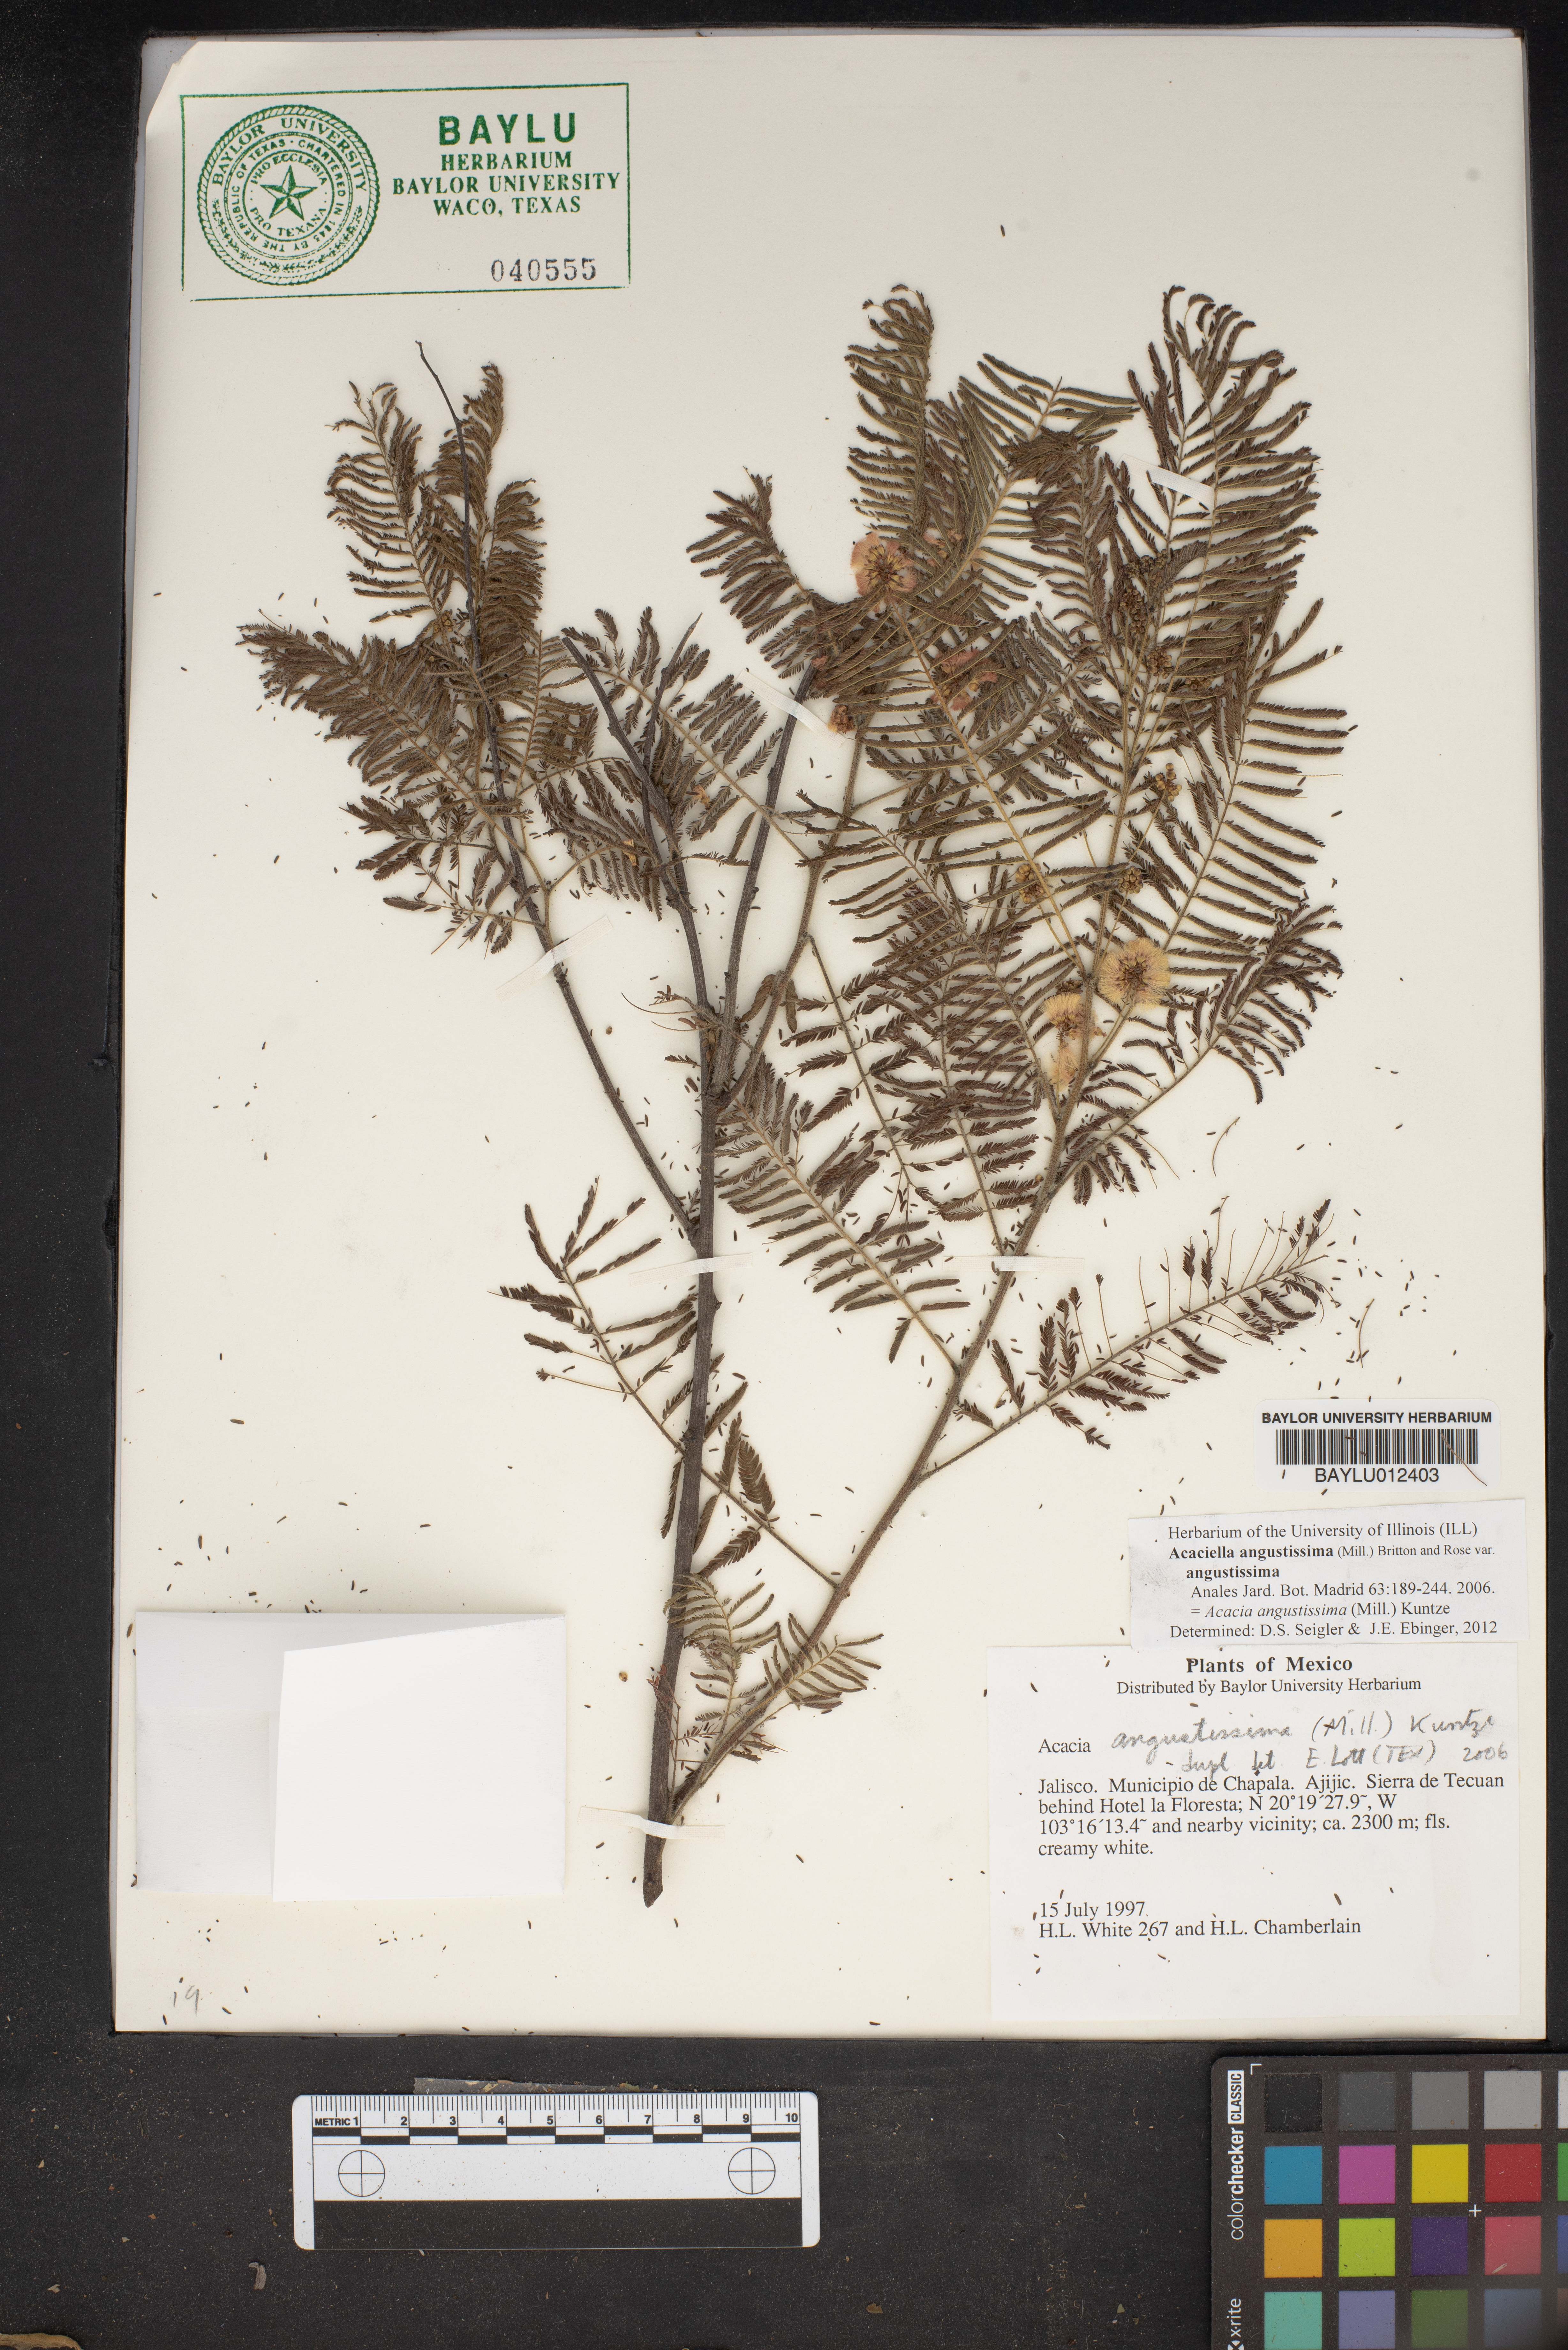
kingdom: Plantae
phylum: Tracheophyta
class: Magnoliopsida
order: Fabales
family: Fabaceae
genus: Acaciella
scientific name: Acaciella angustissima
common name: Prairie acacia
